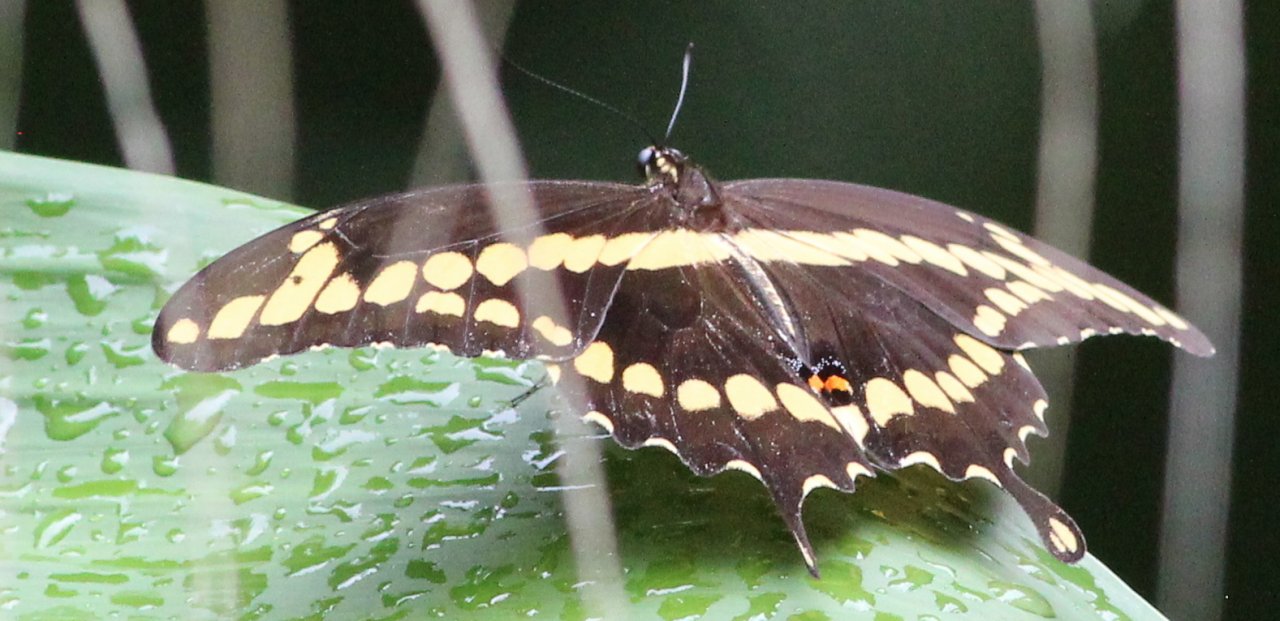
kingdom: Animalia
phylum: Arthropoda
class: Insecta
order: Lepidoptera
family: Papilionidae
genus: Papilio
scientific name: Papilio cresphontes
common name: Eastern Giant Swallowtail
